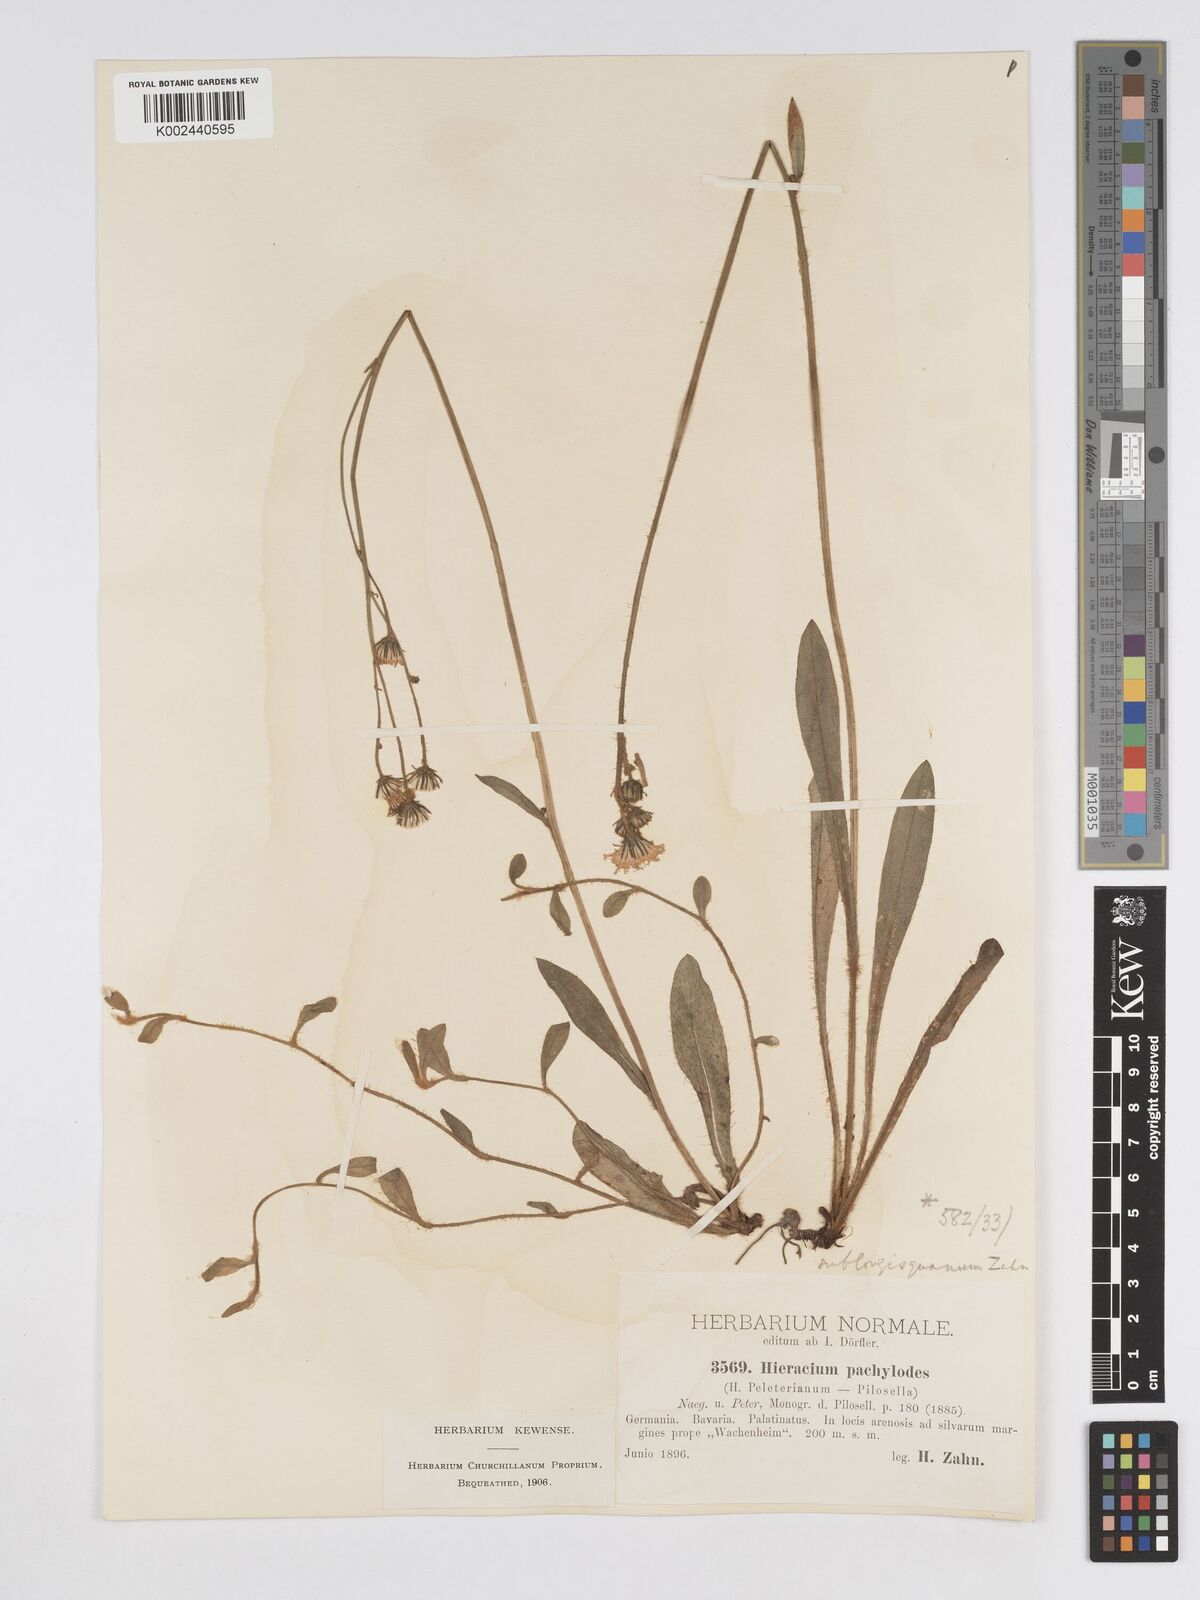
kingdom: Plantae
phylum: Tracheophyta
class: Magnoliopsida
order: Asterales
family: Asteraceae
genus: Pilosella
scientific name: Pilosella longisquama
